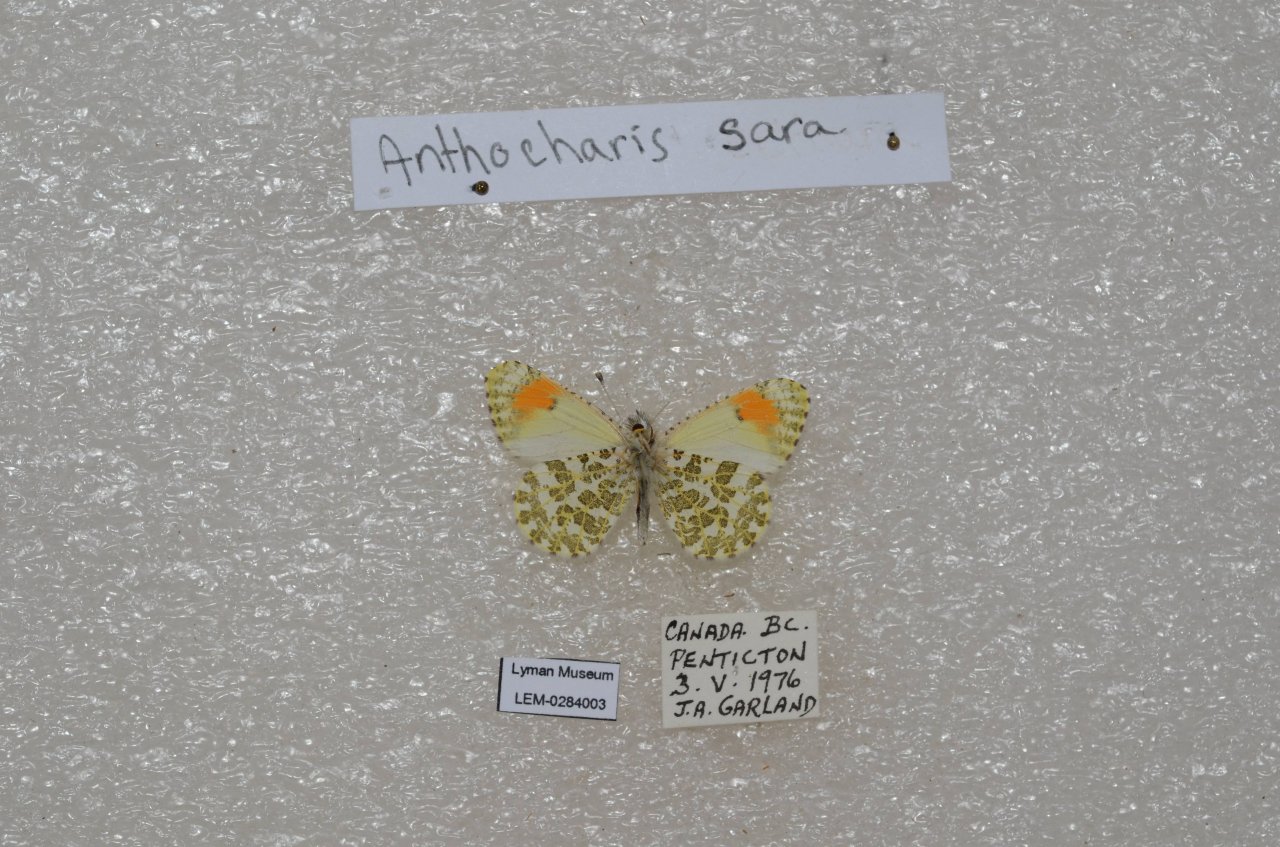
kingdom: Animalia
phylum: Arthropoda
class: Insecta
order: Lepidoptera
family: Pieridae
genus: Anthocharis
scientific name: Anthocharis sara
